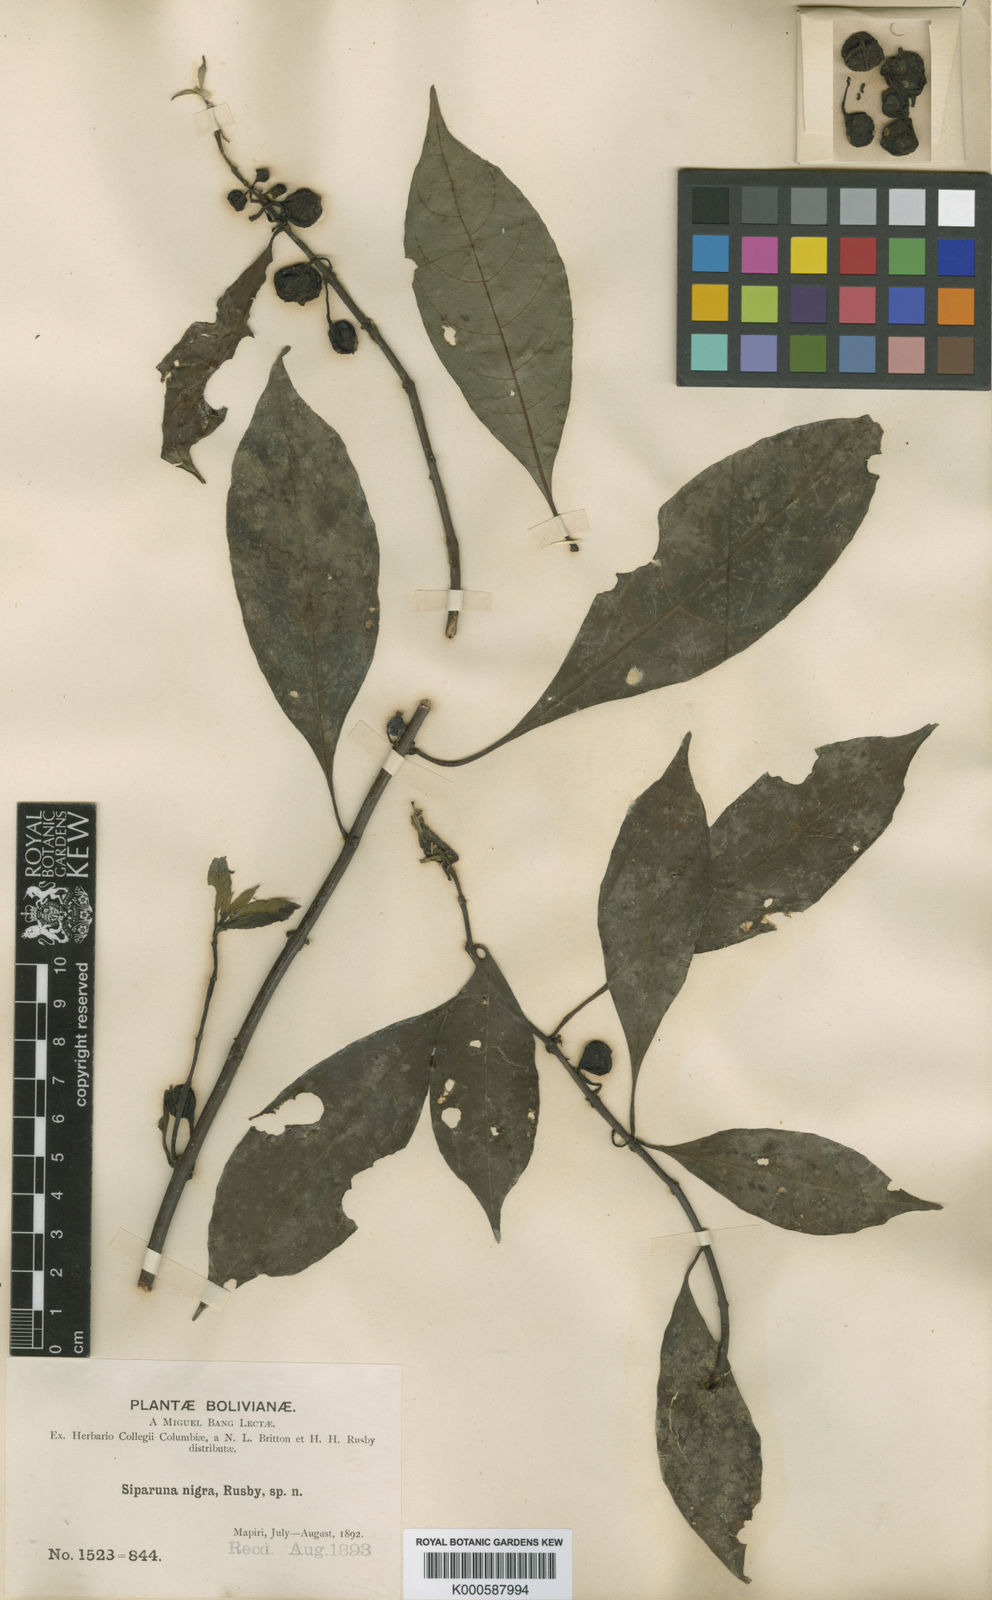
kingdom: Plantae
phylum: Tracheophyta
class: Magnoliopsida
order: Laurales
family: Siparunaceae
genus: Siparuna
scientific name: Siparuna thecaphora
